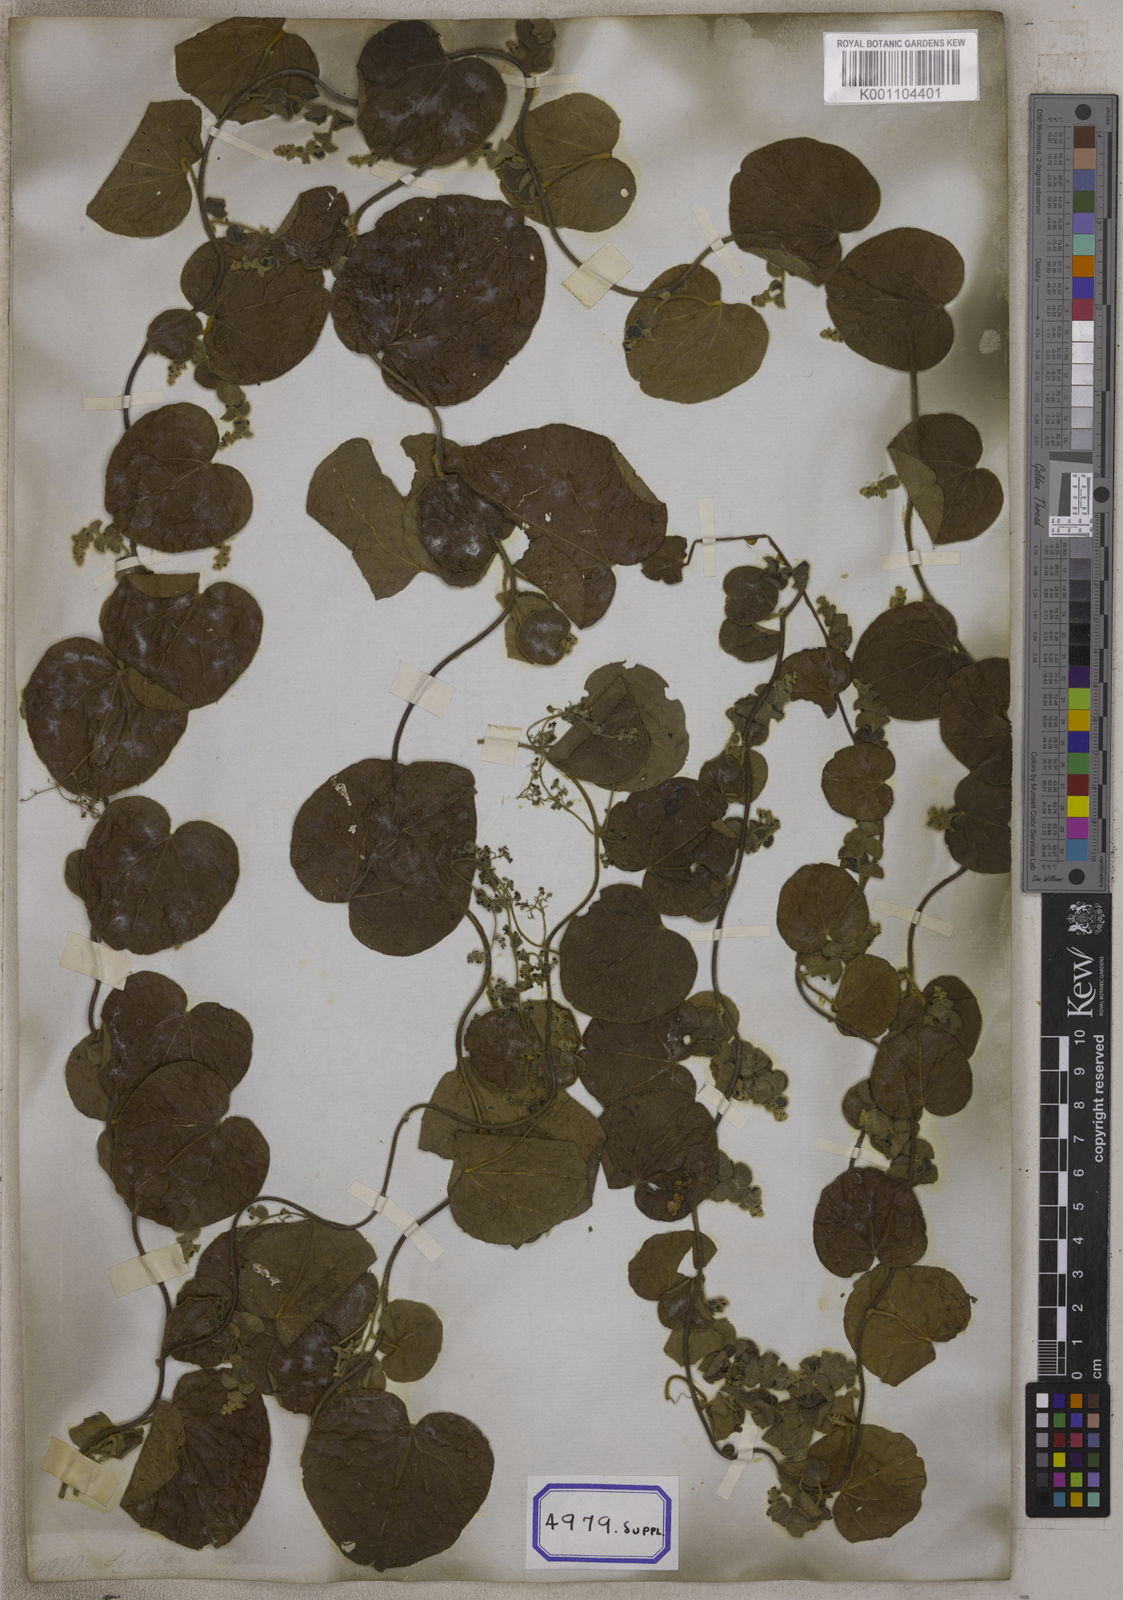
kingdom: Plantae
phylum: Tracheophyta
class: Magnoliopsida
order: Ranunculales
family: Menispermaceae
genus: Cissampelos
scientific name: Cissampelos pareira
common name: Velvetleaf
